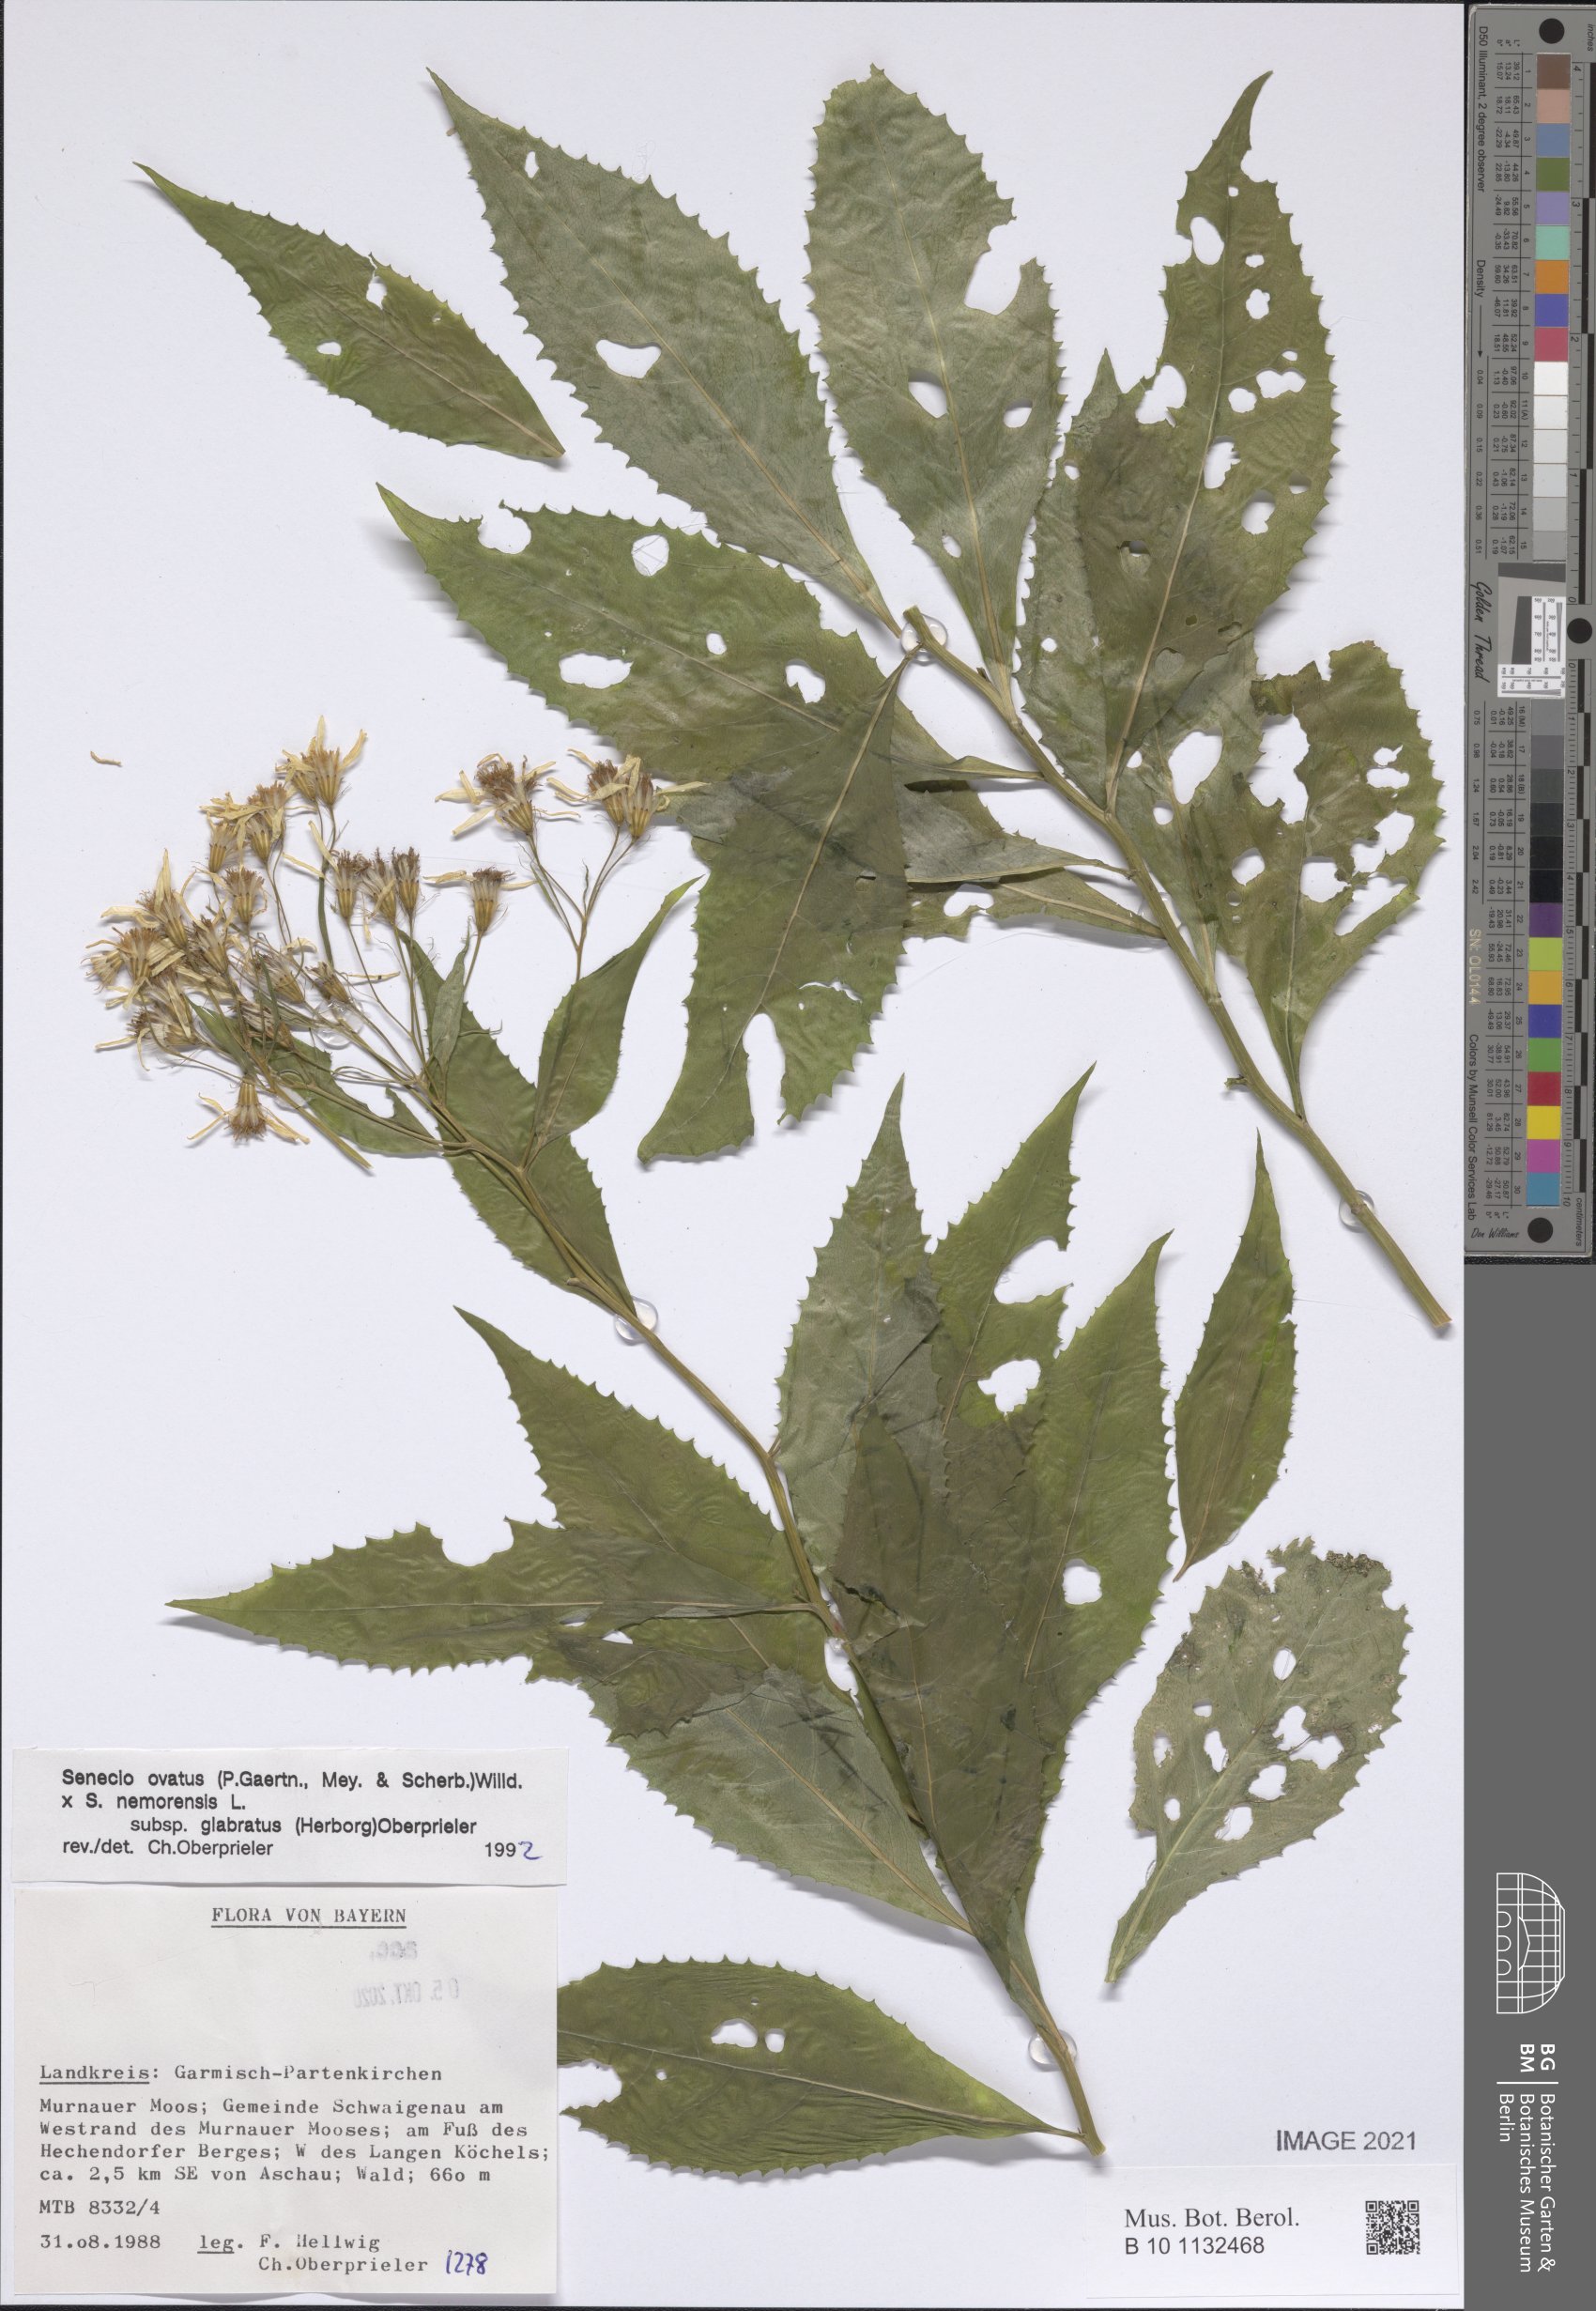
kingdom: Plantae
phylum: Tracheophyta
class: Magnoliopsida
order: Asterales
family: Asteraceae
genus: Senecio
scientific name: Senecio ovatus
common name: Wood ragwort
